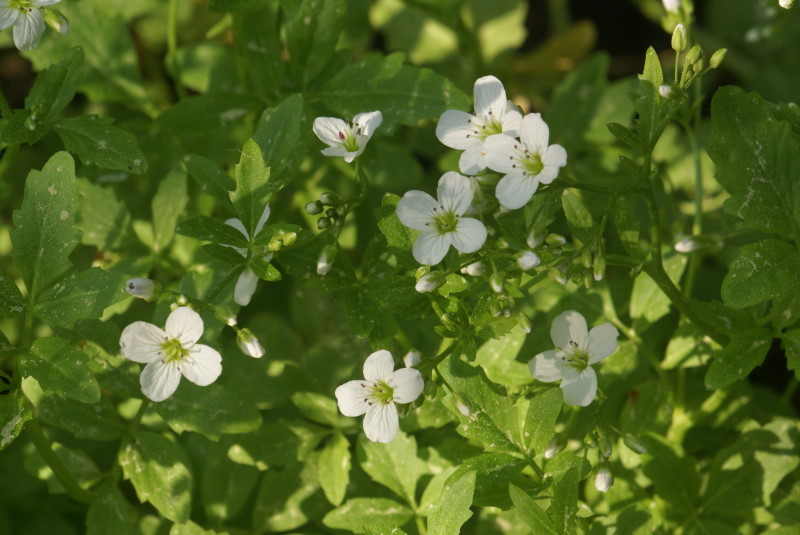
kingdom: Plantae
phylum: Tracheophyta
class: Magnoliopsida
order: Brassicales
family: Brassicaceae
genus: Cardamine
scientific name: Cardamine amara
